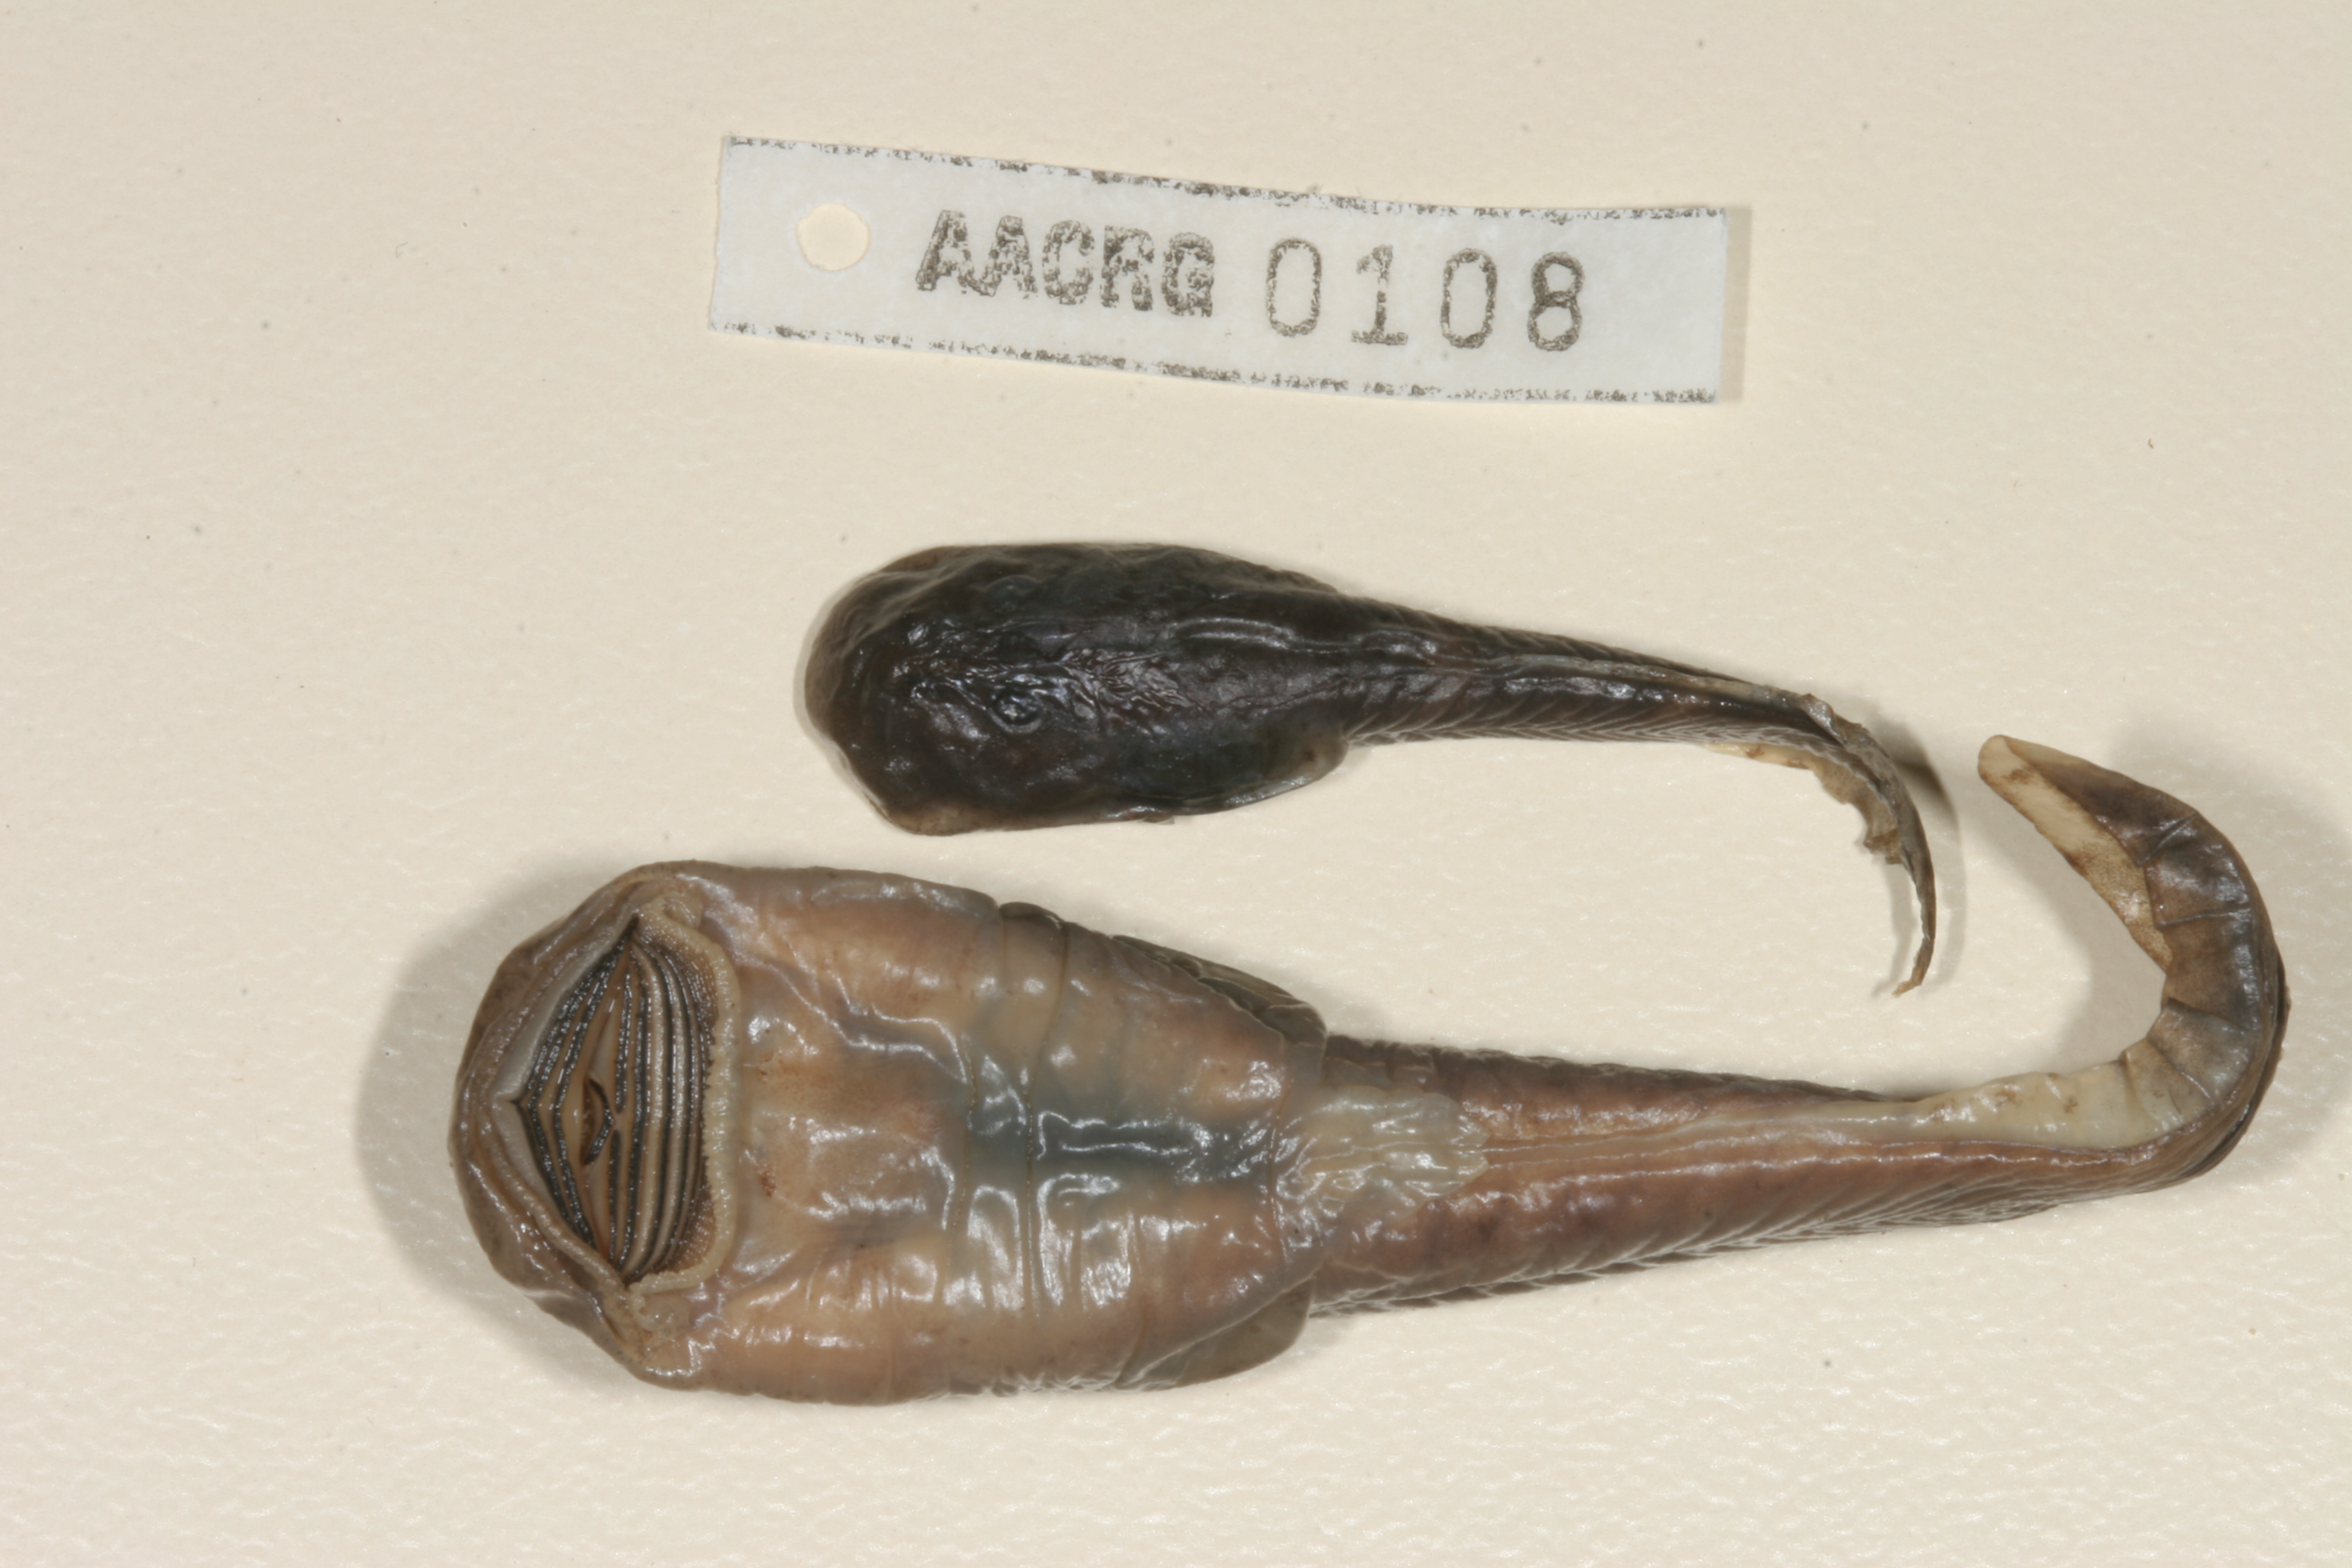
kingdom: Animalia
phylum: Chordata
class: Amphibia
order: Anura
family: Heleophrynidae
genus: Hadromophryne
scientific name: Hadromophryne natalensis
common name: Natal ghost frog
